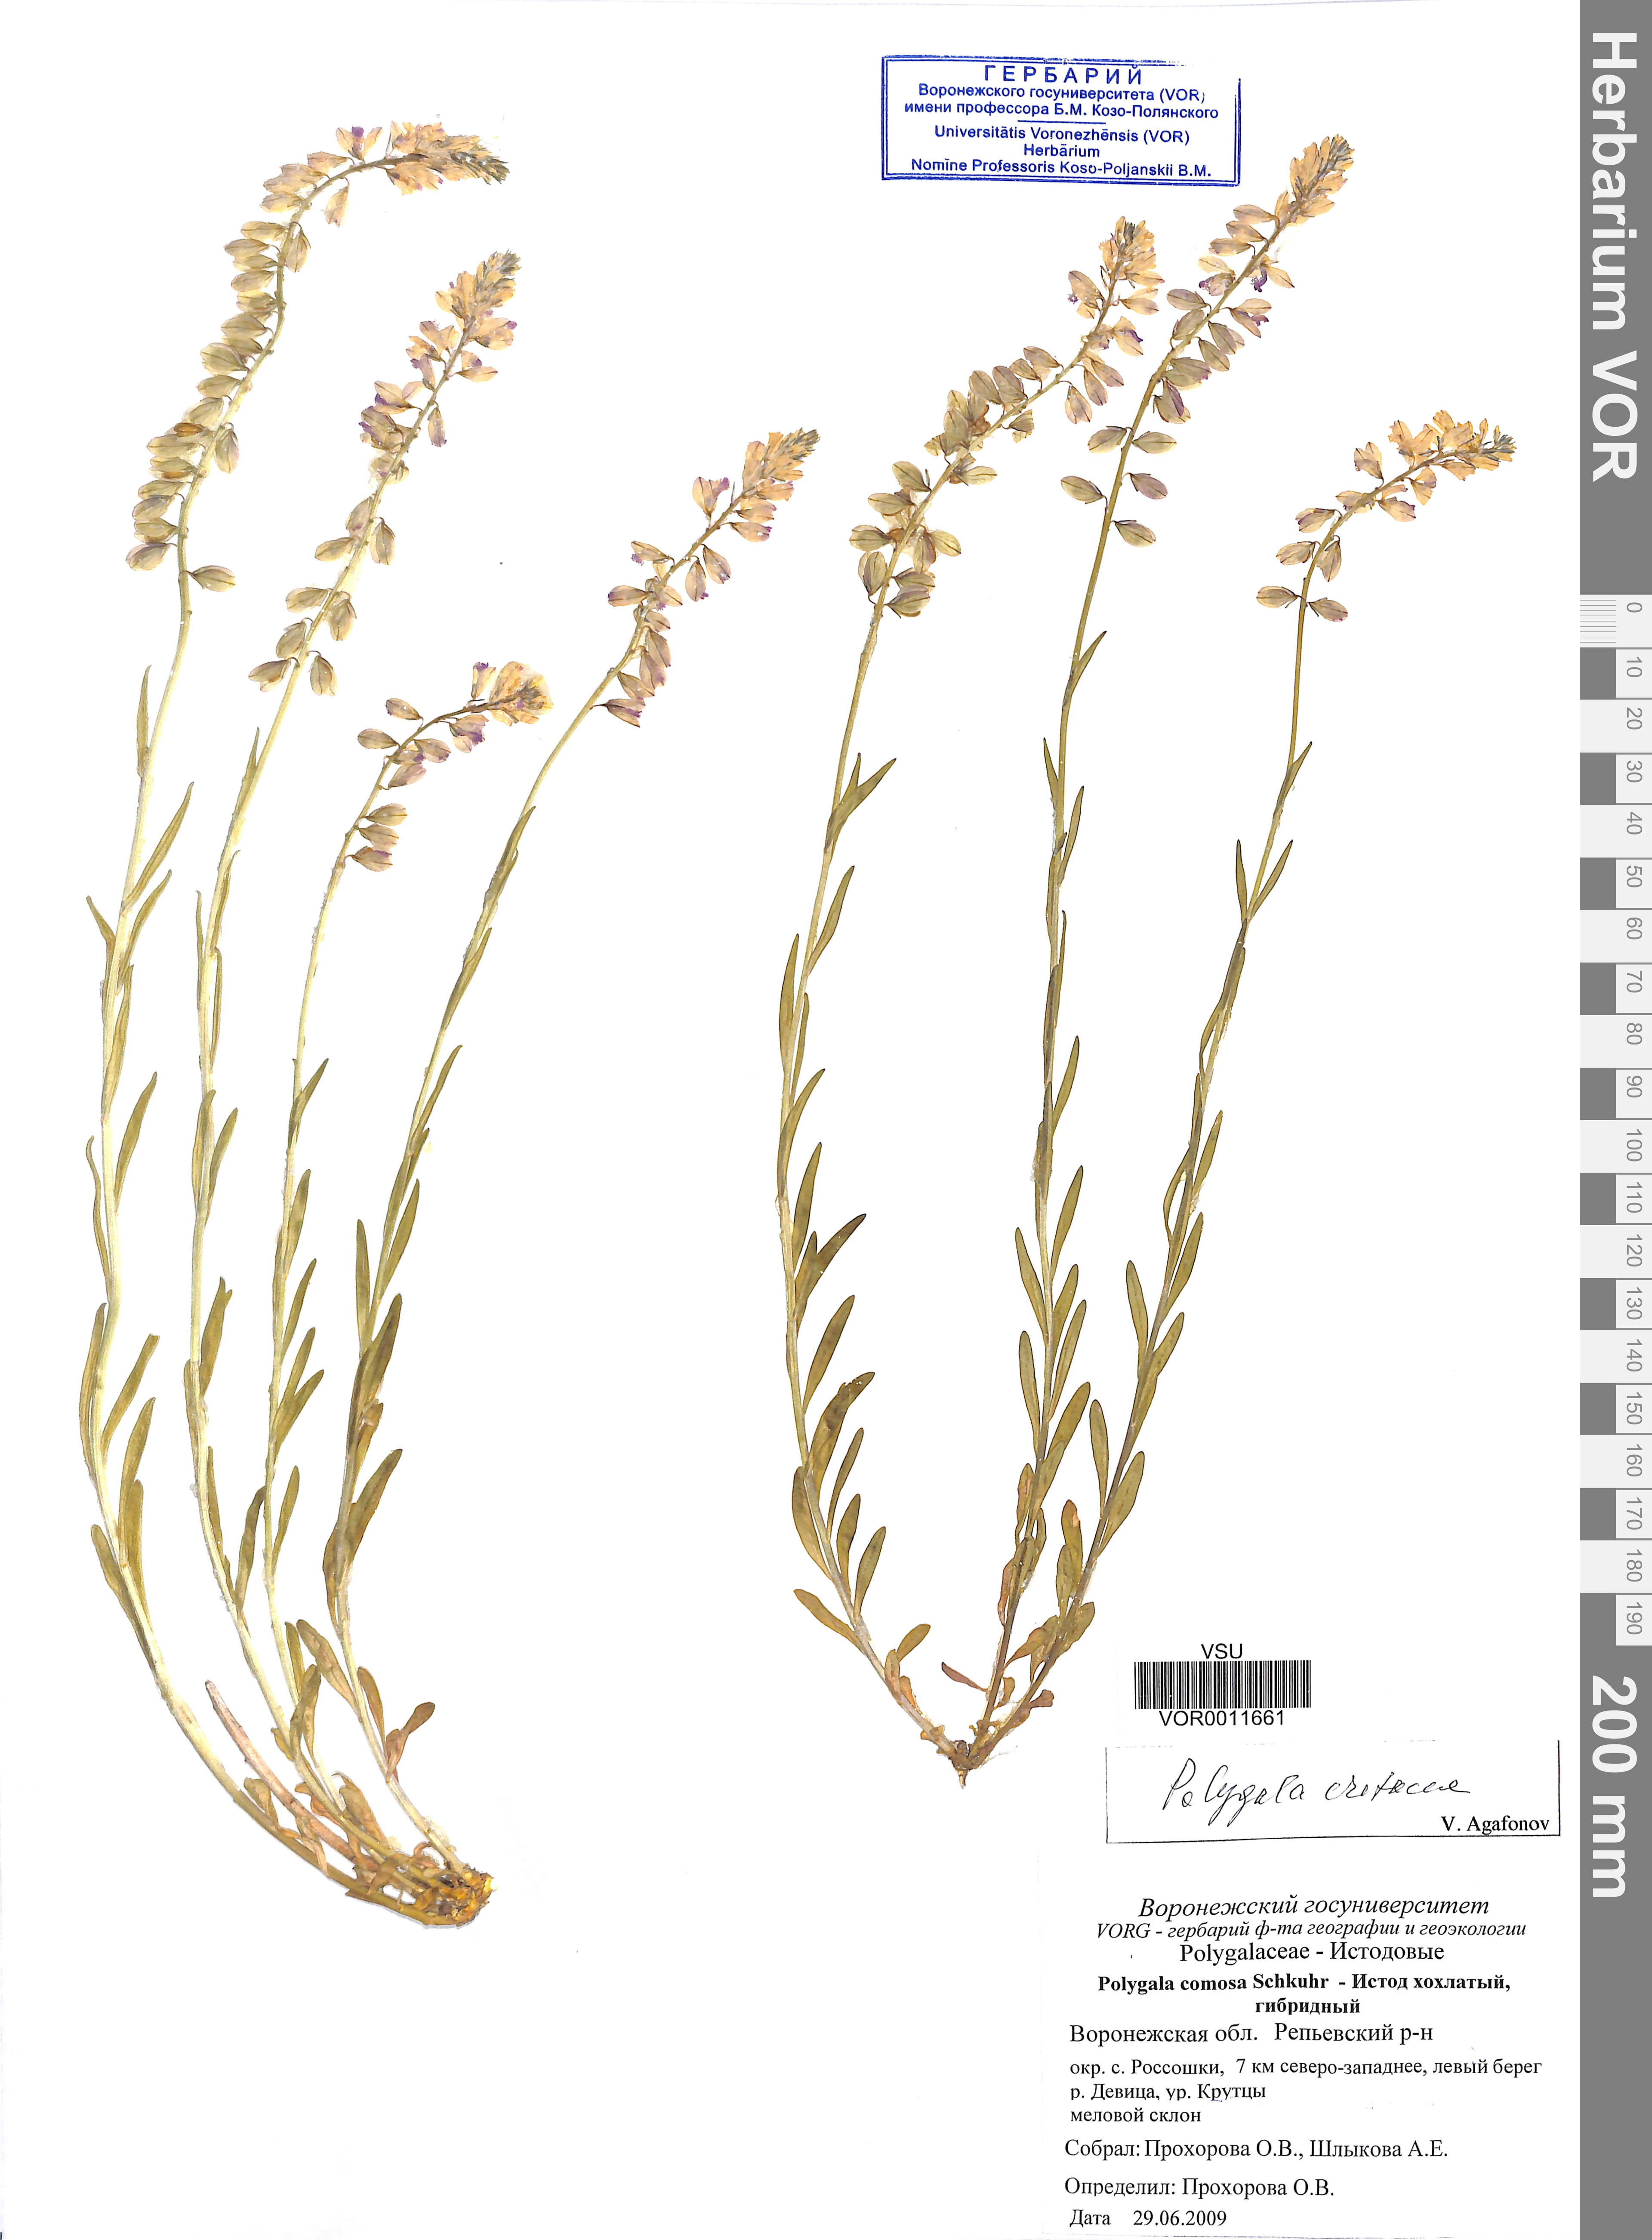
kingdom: Plantae
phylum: Tracheophyta
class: Magnoliopsida
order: Fabales
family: Polygalaceae
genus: Polygala
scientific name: Polygala nicaeensis
